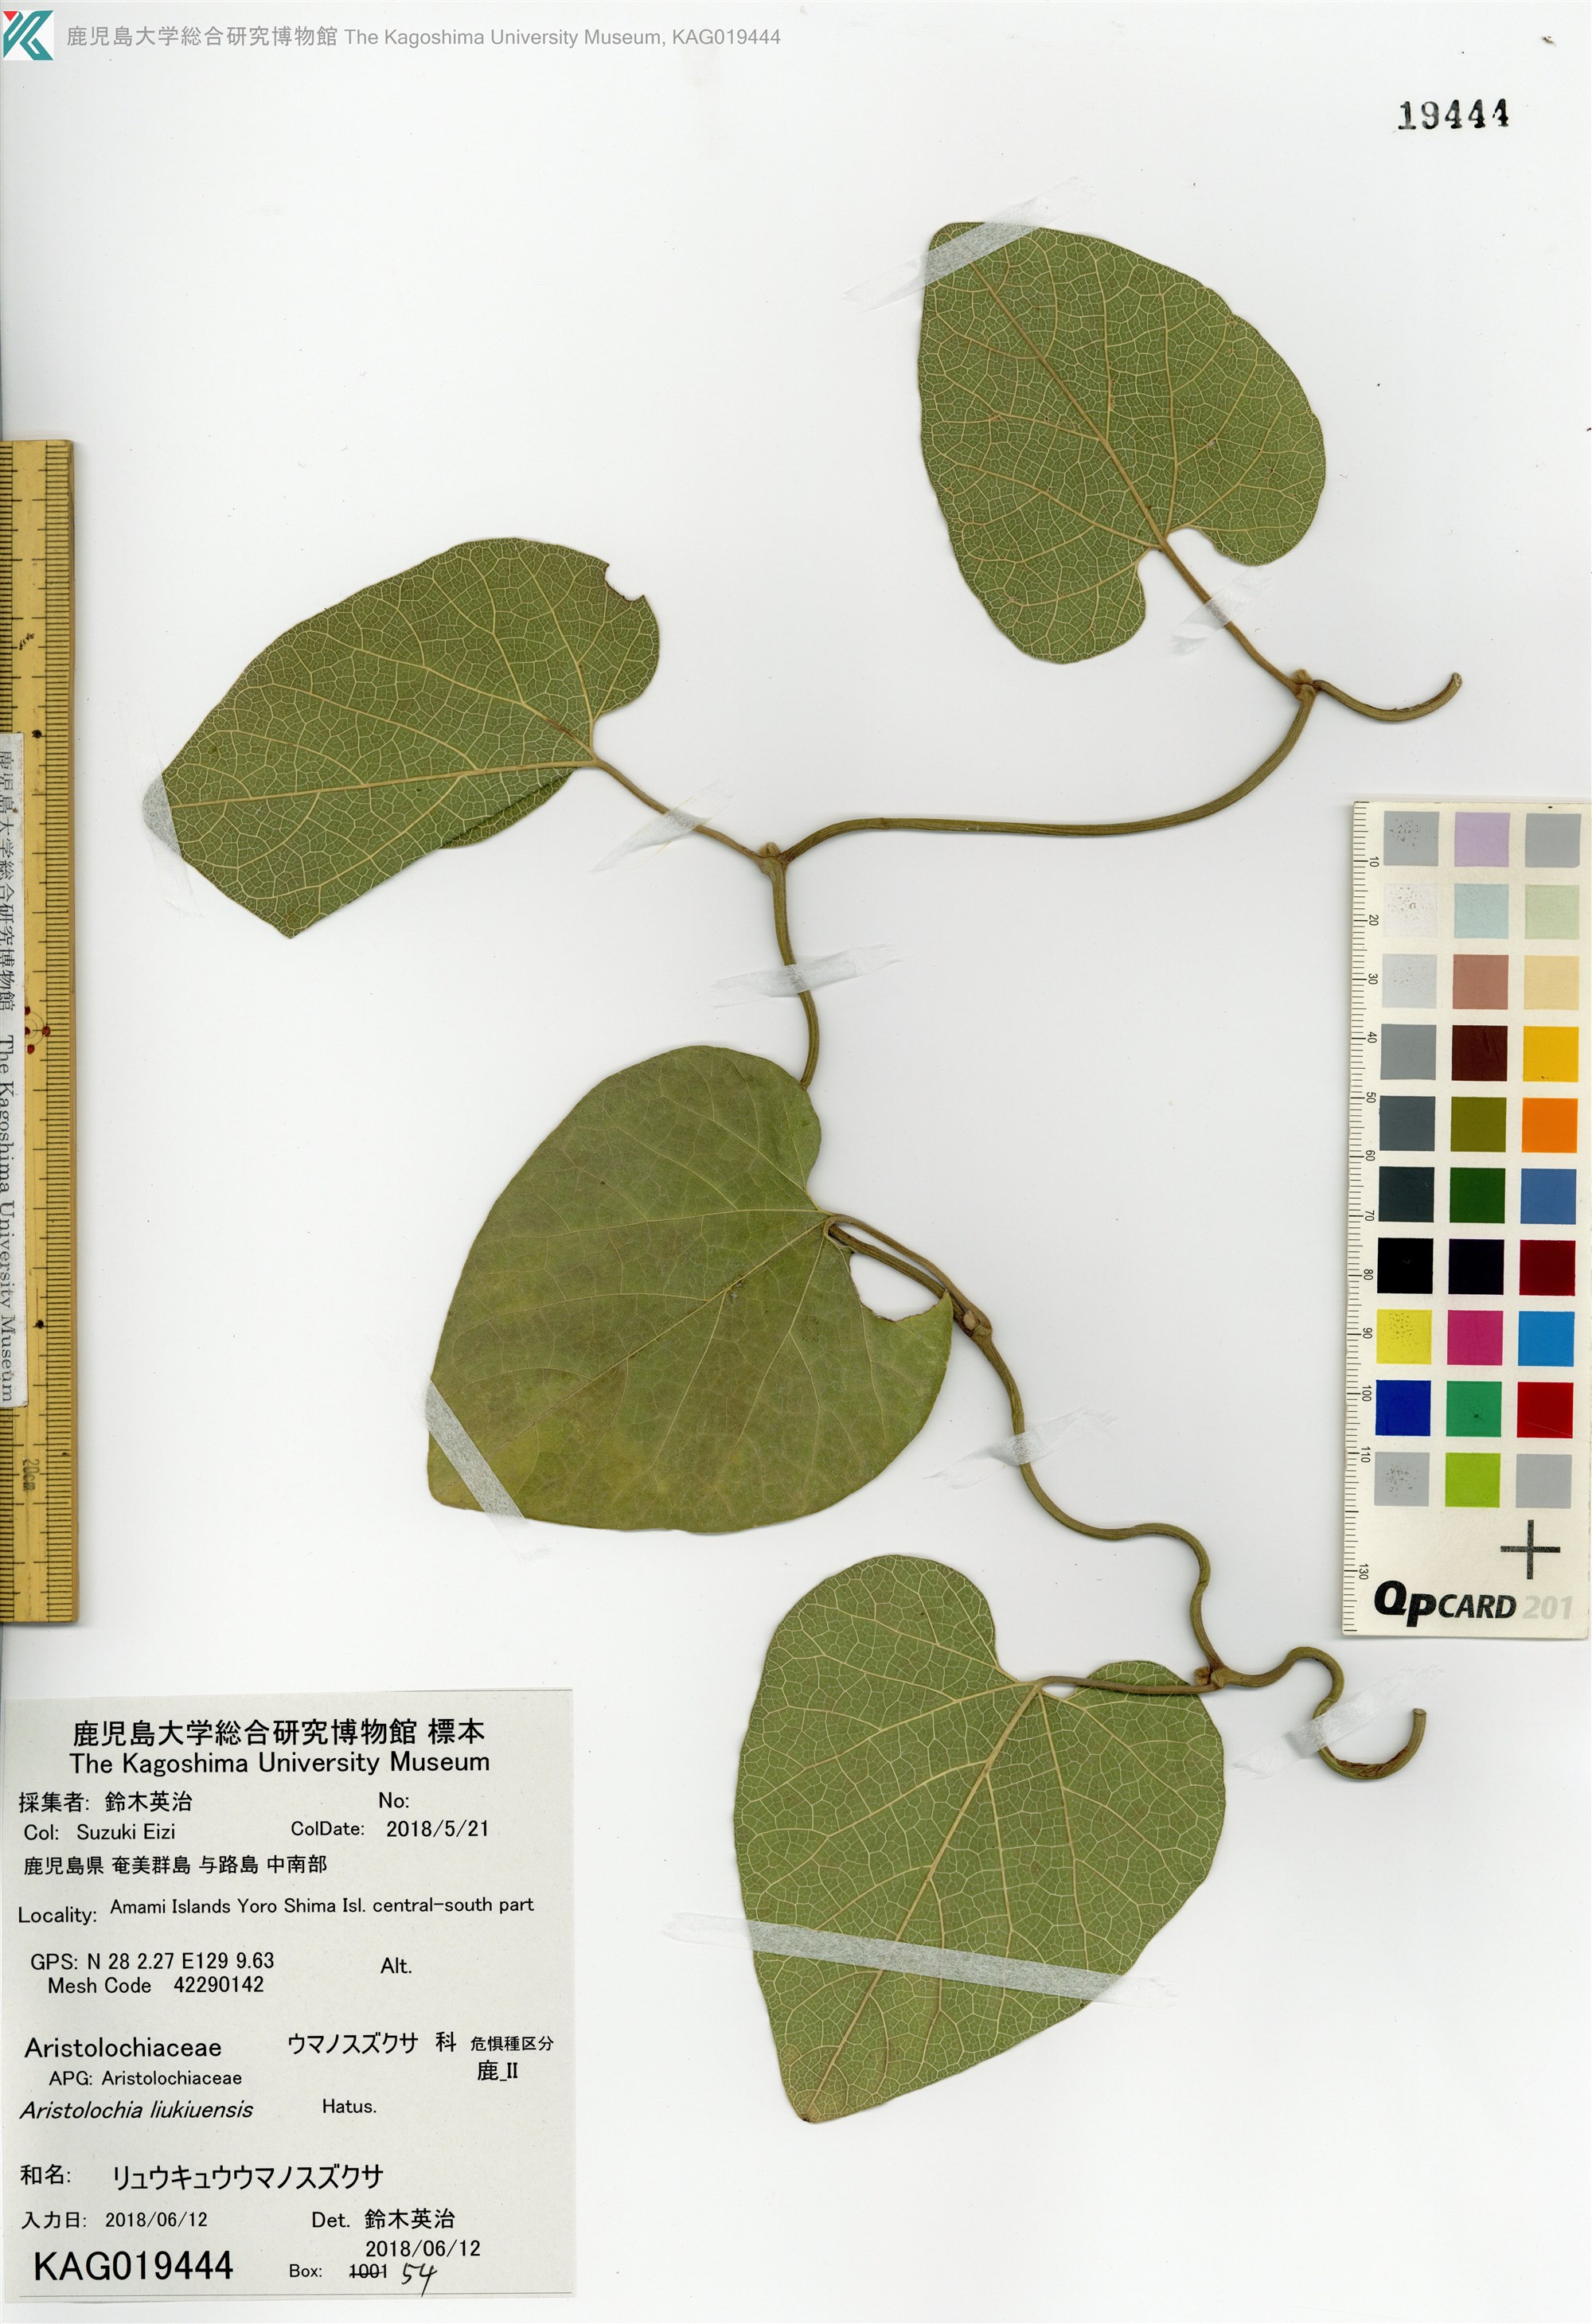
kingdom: Plantae
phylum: Tracheophyta
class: Magnoliopsida
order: Piperales
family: Aristolochiaceae
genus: Isotrema
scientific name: Isotrema liukiuense
